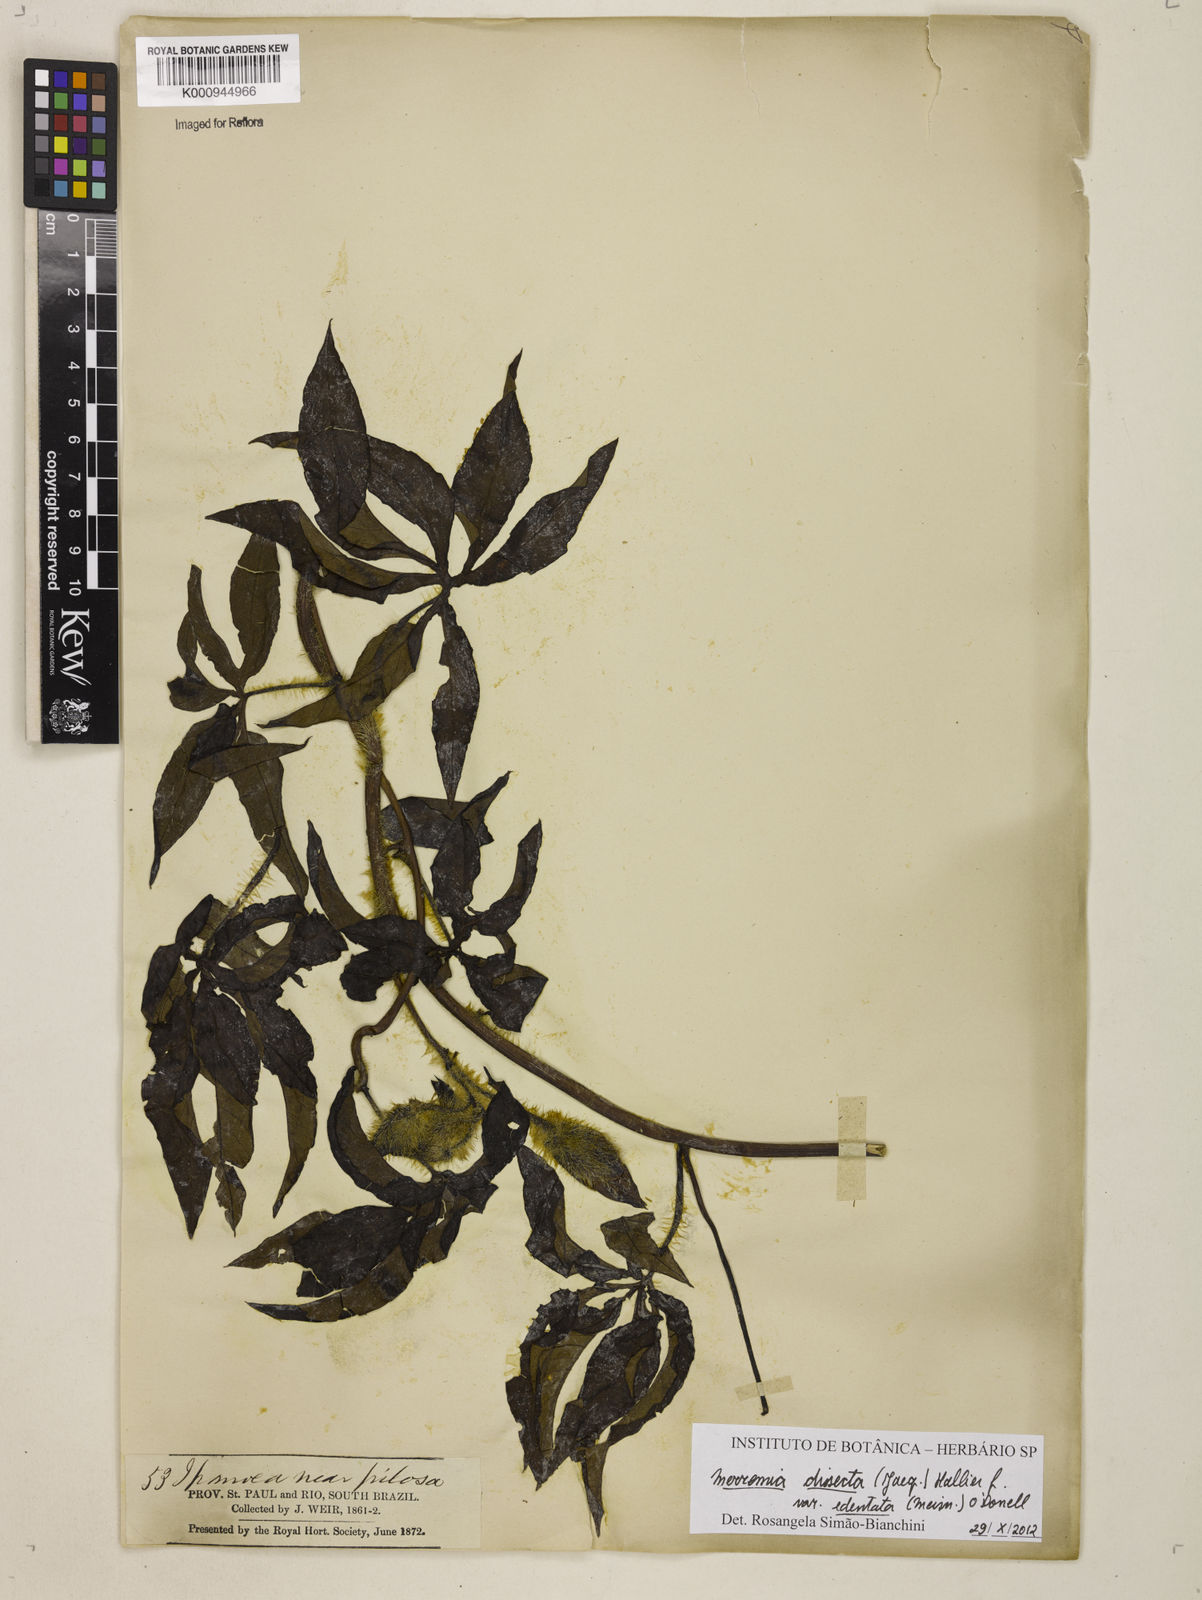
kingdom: Plantae
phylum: Tracheophyta
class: Magnoliopsida
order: Solanales
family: Convolvulaceae
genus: Distimake
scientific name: Distimake dissectus
